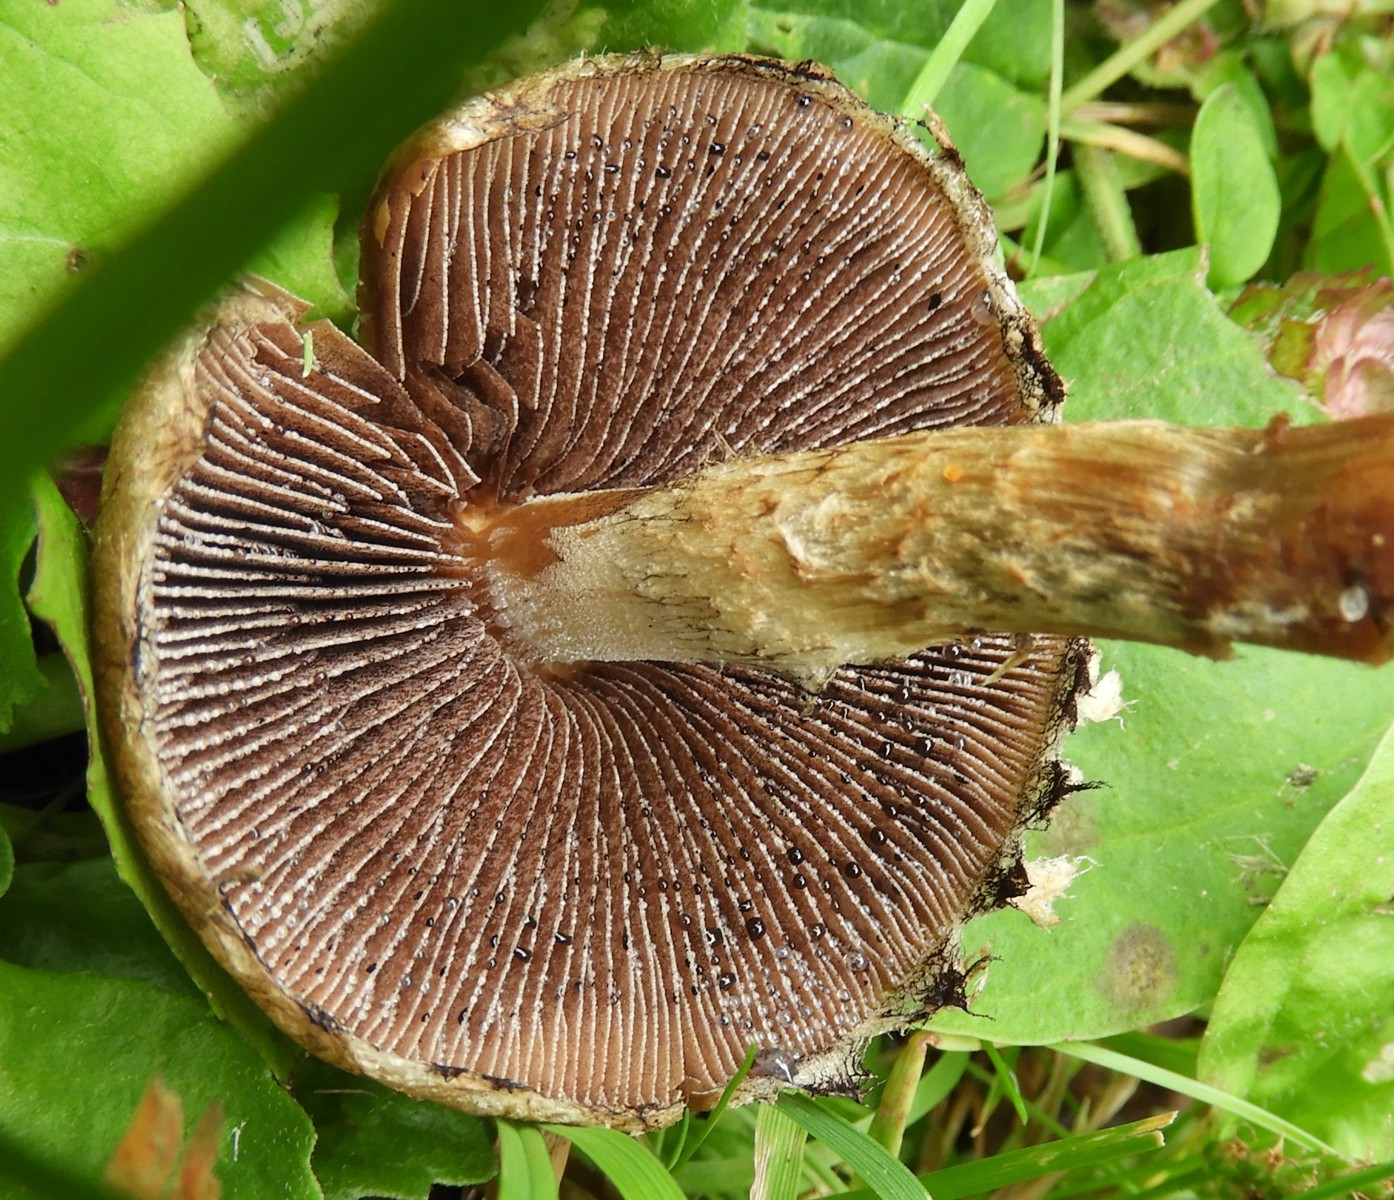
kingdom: Fungi
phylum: Basidiomycota
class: Agaricomycetes
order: Agaricales
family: Psathyrellaceae
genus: Lacrymaria
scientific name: Lacrymaria lacrymabunda
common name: grædende mørkhat
